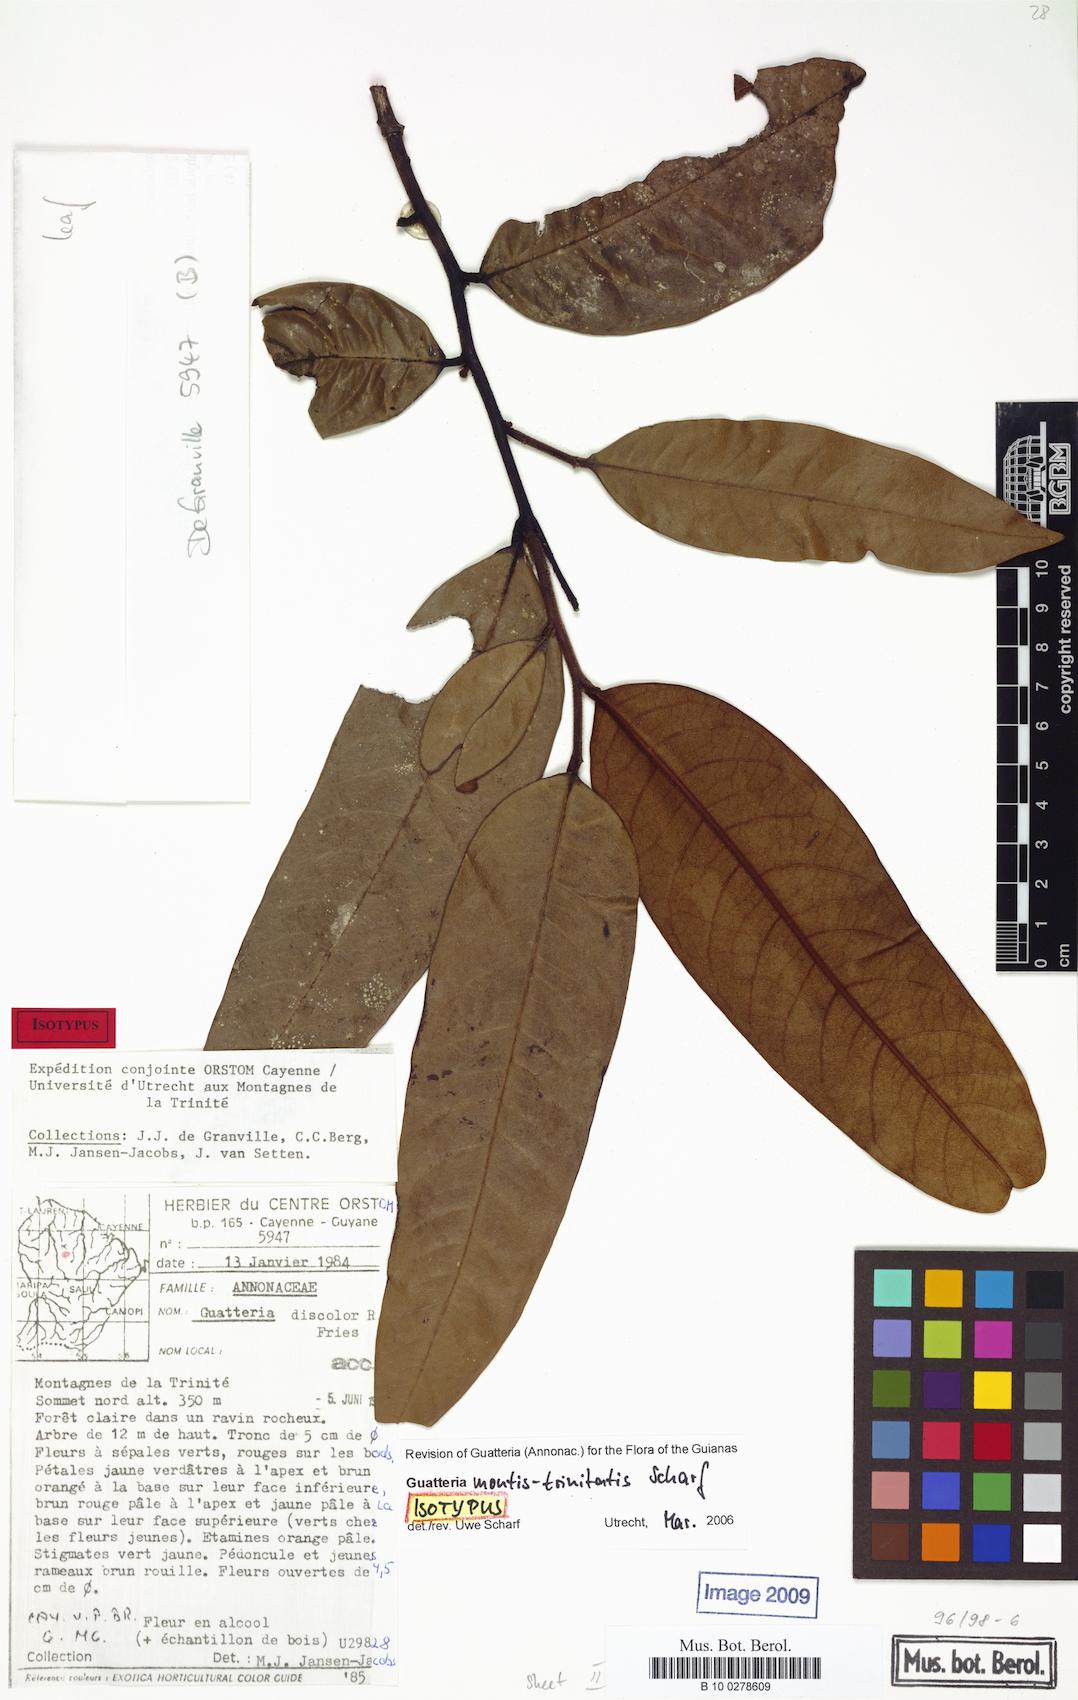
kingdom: Plantae
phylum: Tracheophyta
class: Magnoliopsida
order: Magnoliales
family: Annonaceae
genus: Guatteria
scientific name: Guatteria montis-trinitatis
